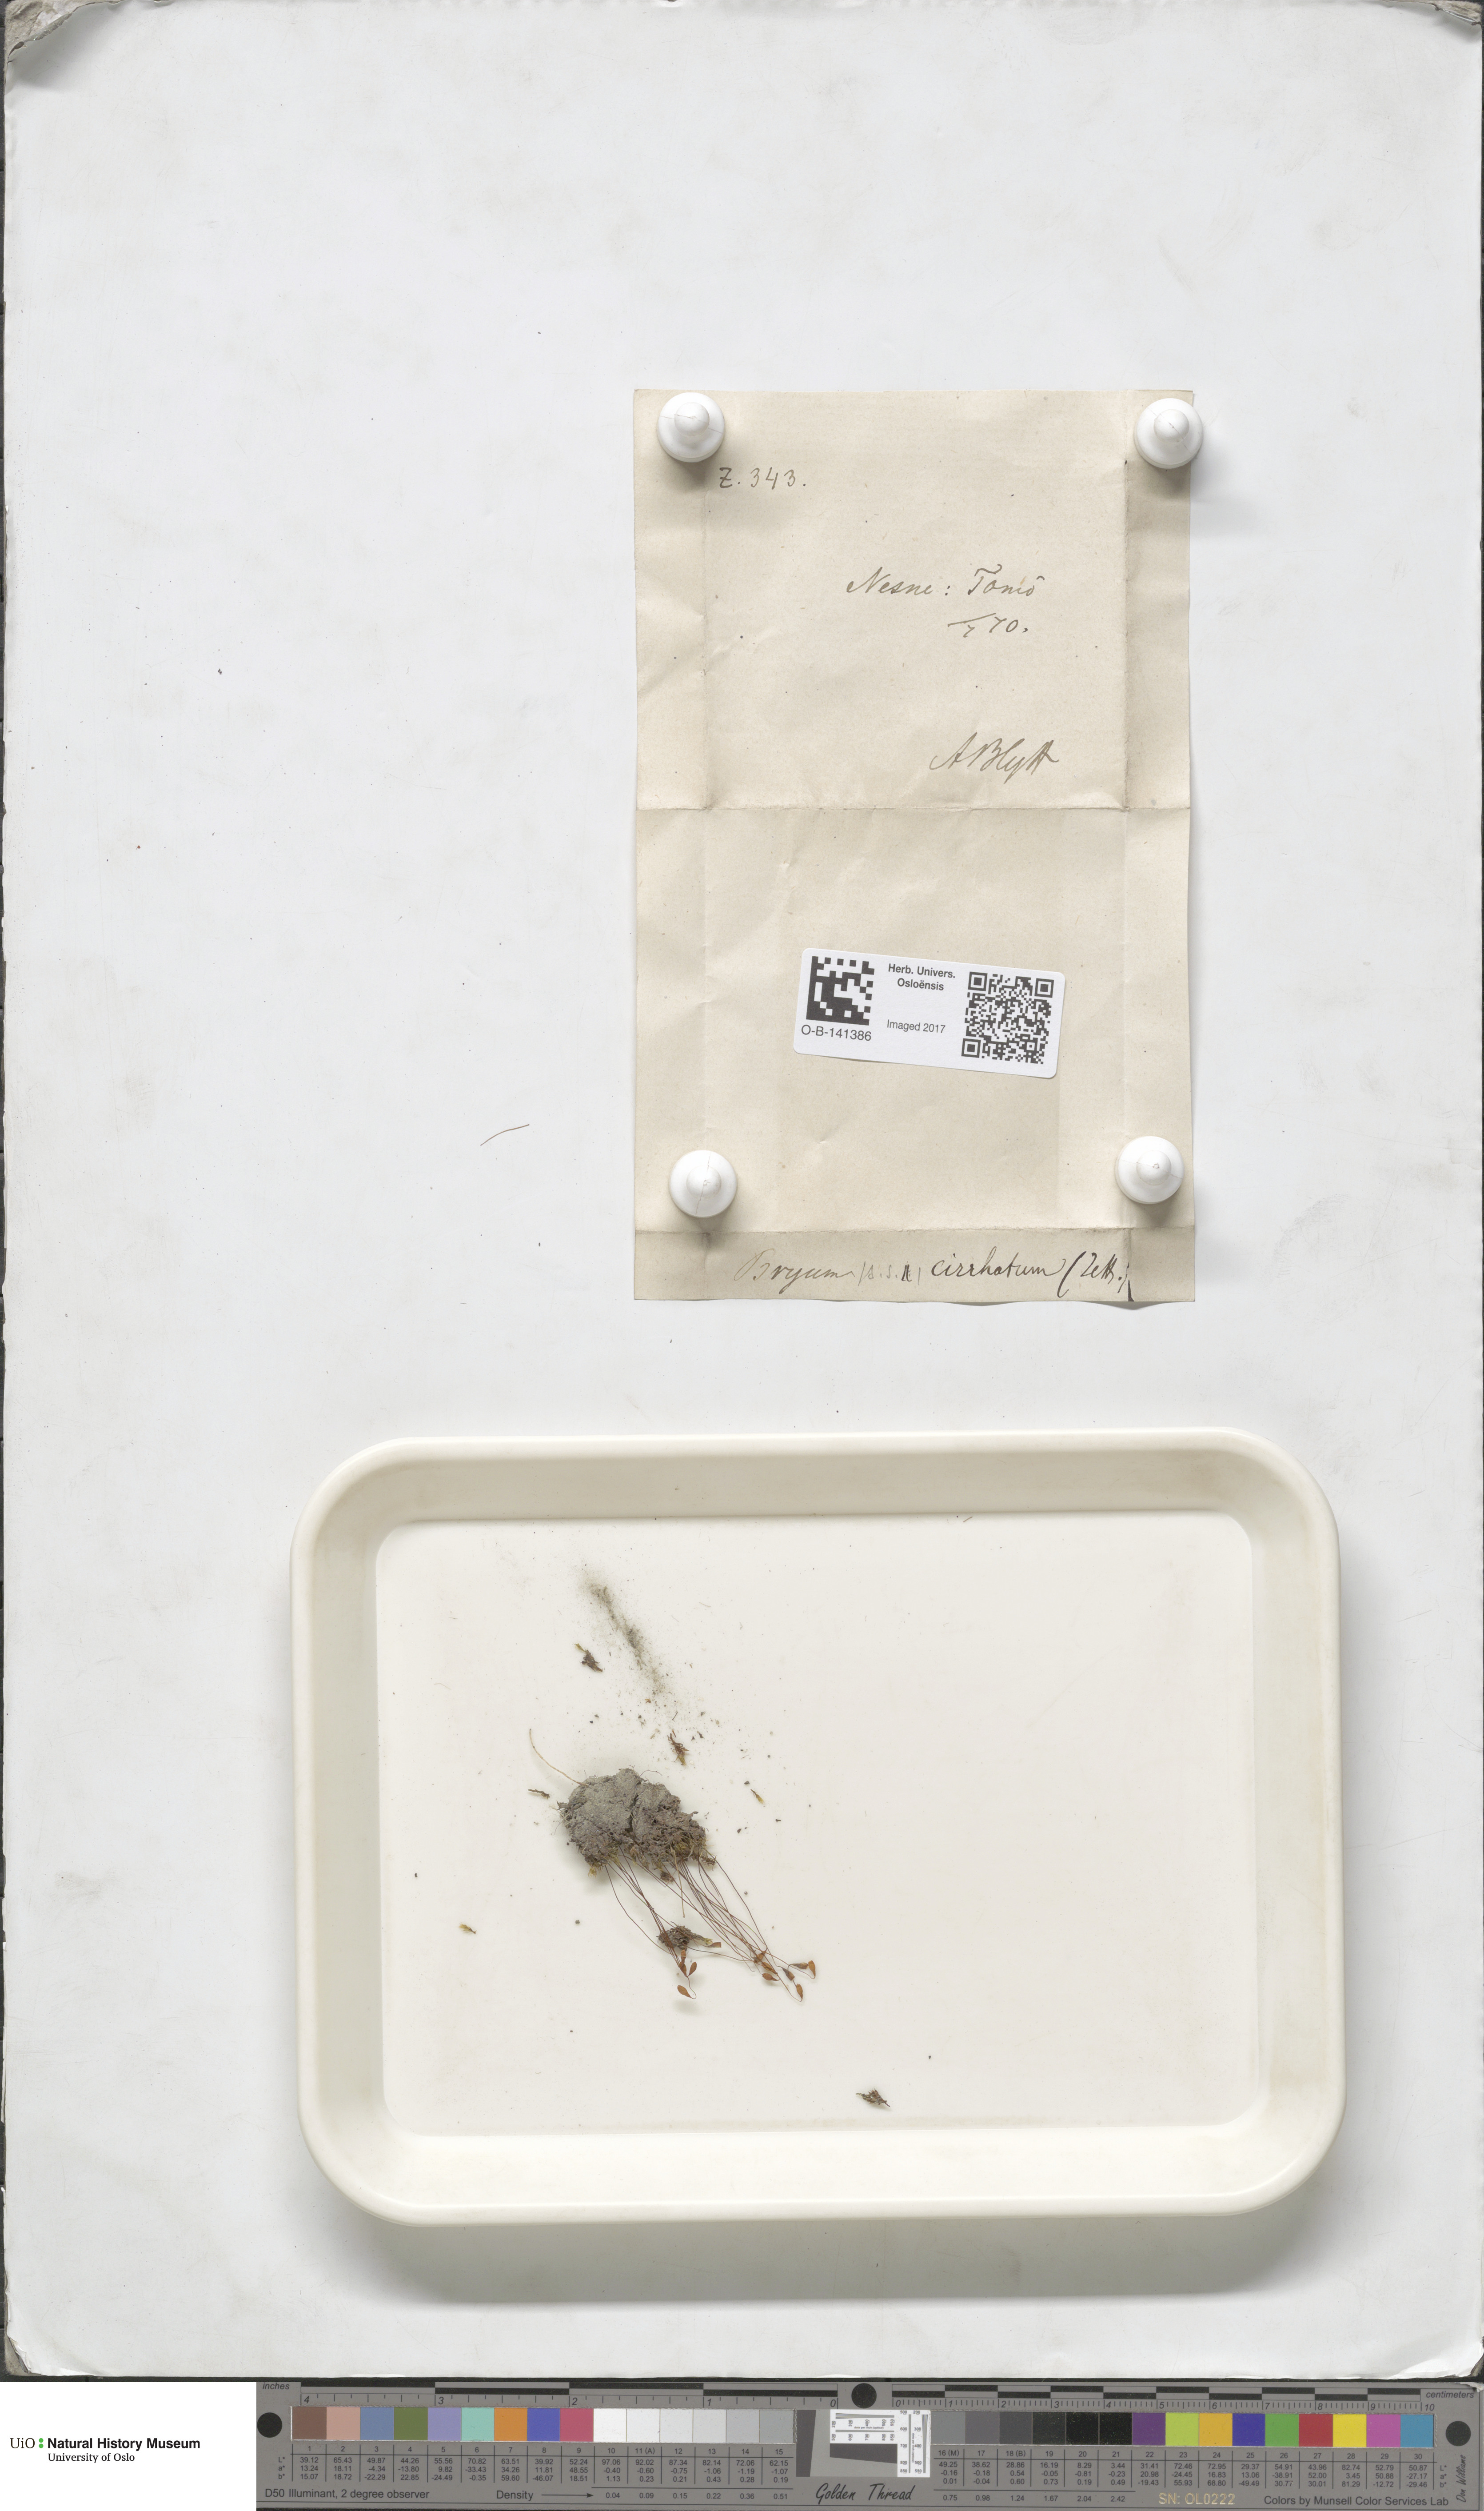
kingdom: Plantae
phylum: Bryophyta
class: Bryopsida
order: Bryales
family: Bryaceae
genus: Ptychostomum
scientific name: Ptychostomum pallescens
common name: Tall-clustered thread-moss
